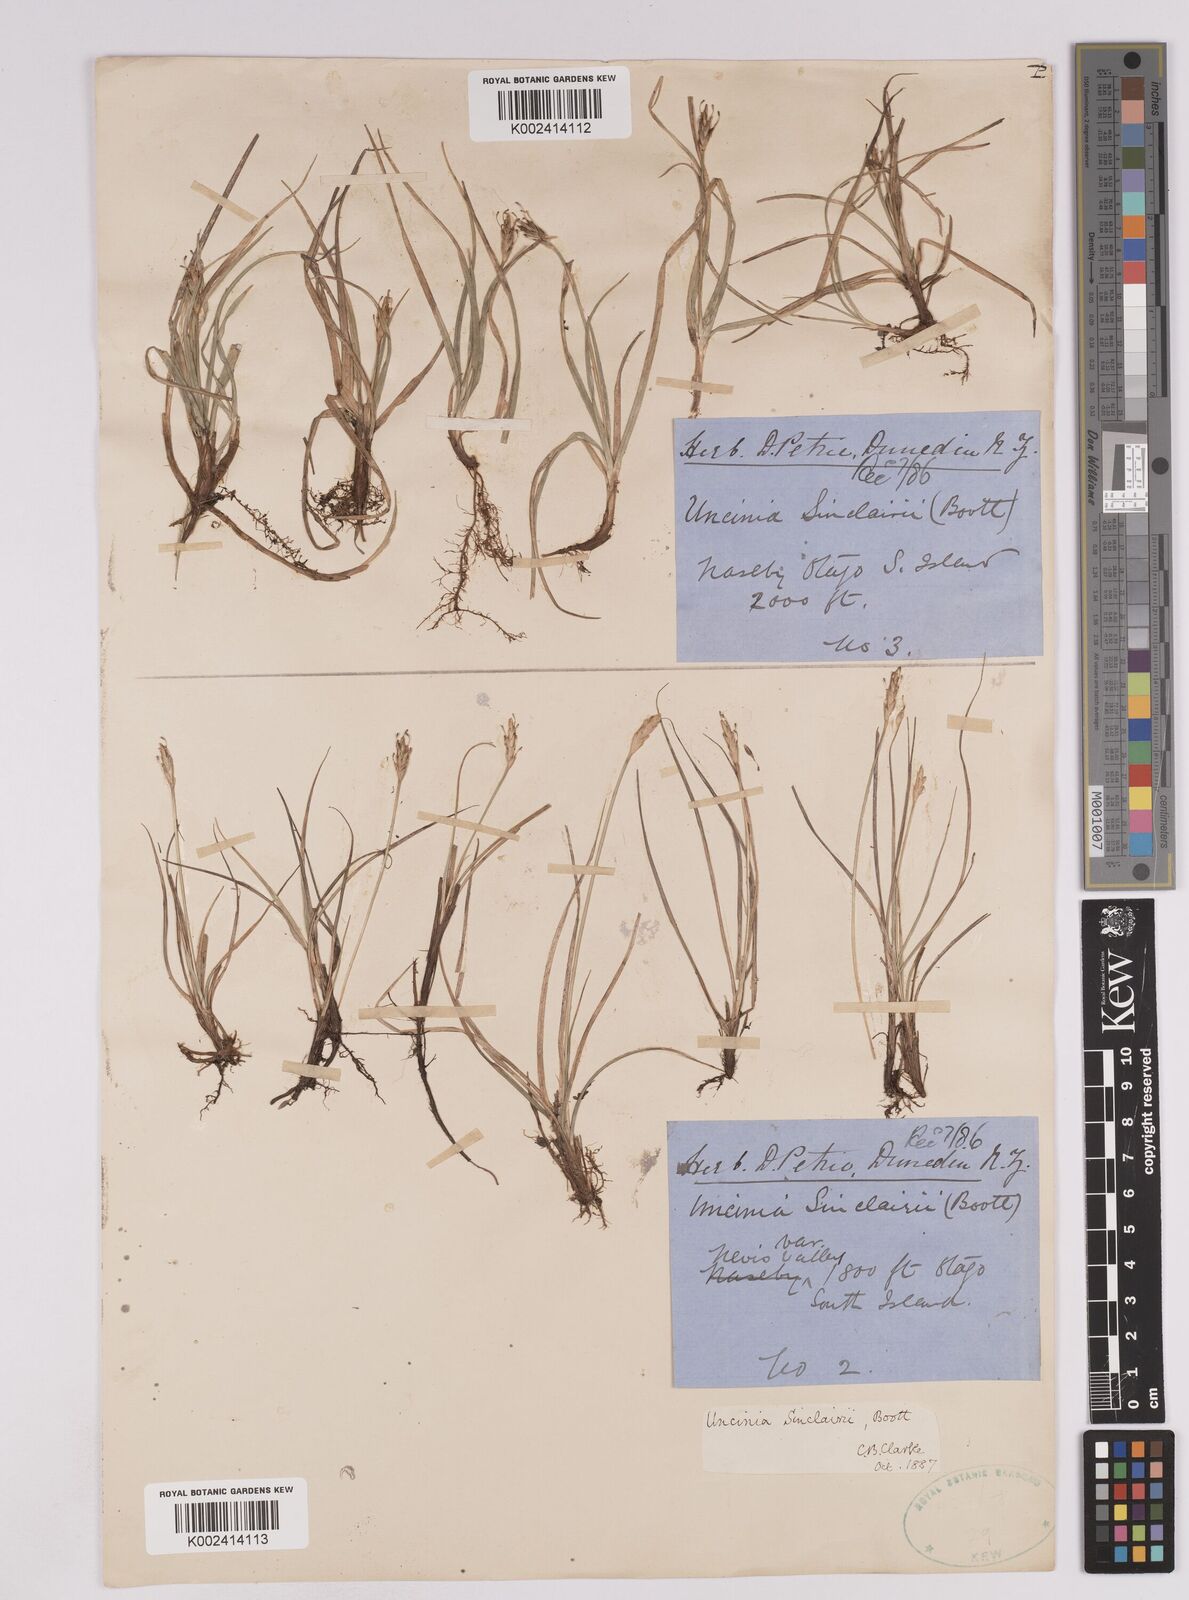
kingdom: Plantae
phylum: Tracheophyta
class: Liliopsida
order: Poales
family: Cyperaceae
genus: Carex
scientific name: Carex parvispica
